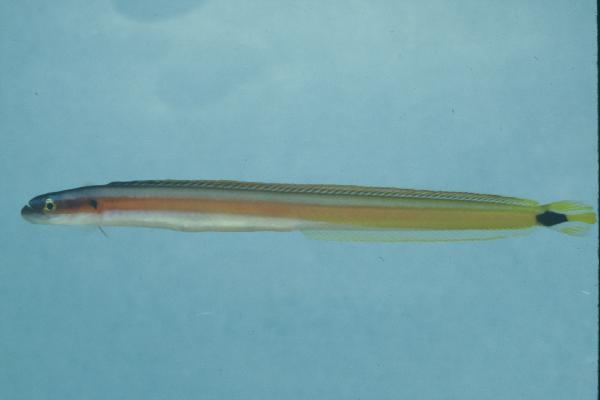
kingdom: Animalia
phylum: Chordata
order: Perciformes
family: Microdesmidae
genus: Gunnellichthys
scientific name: Gunnellichthys curiosus
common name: Curious wormfish
